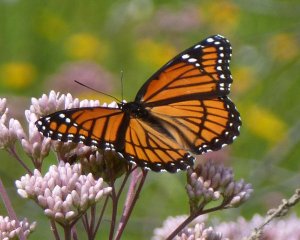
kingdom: Animalia
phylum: Arthropoda
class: Insecta
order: Lepidoptera
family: Nymphalidae
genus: Limenitis
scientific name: Limenitis archippus
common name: Viceroy
